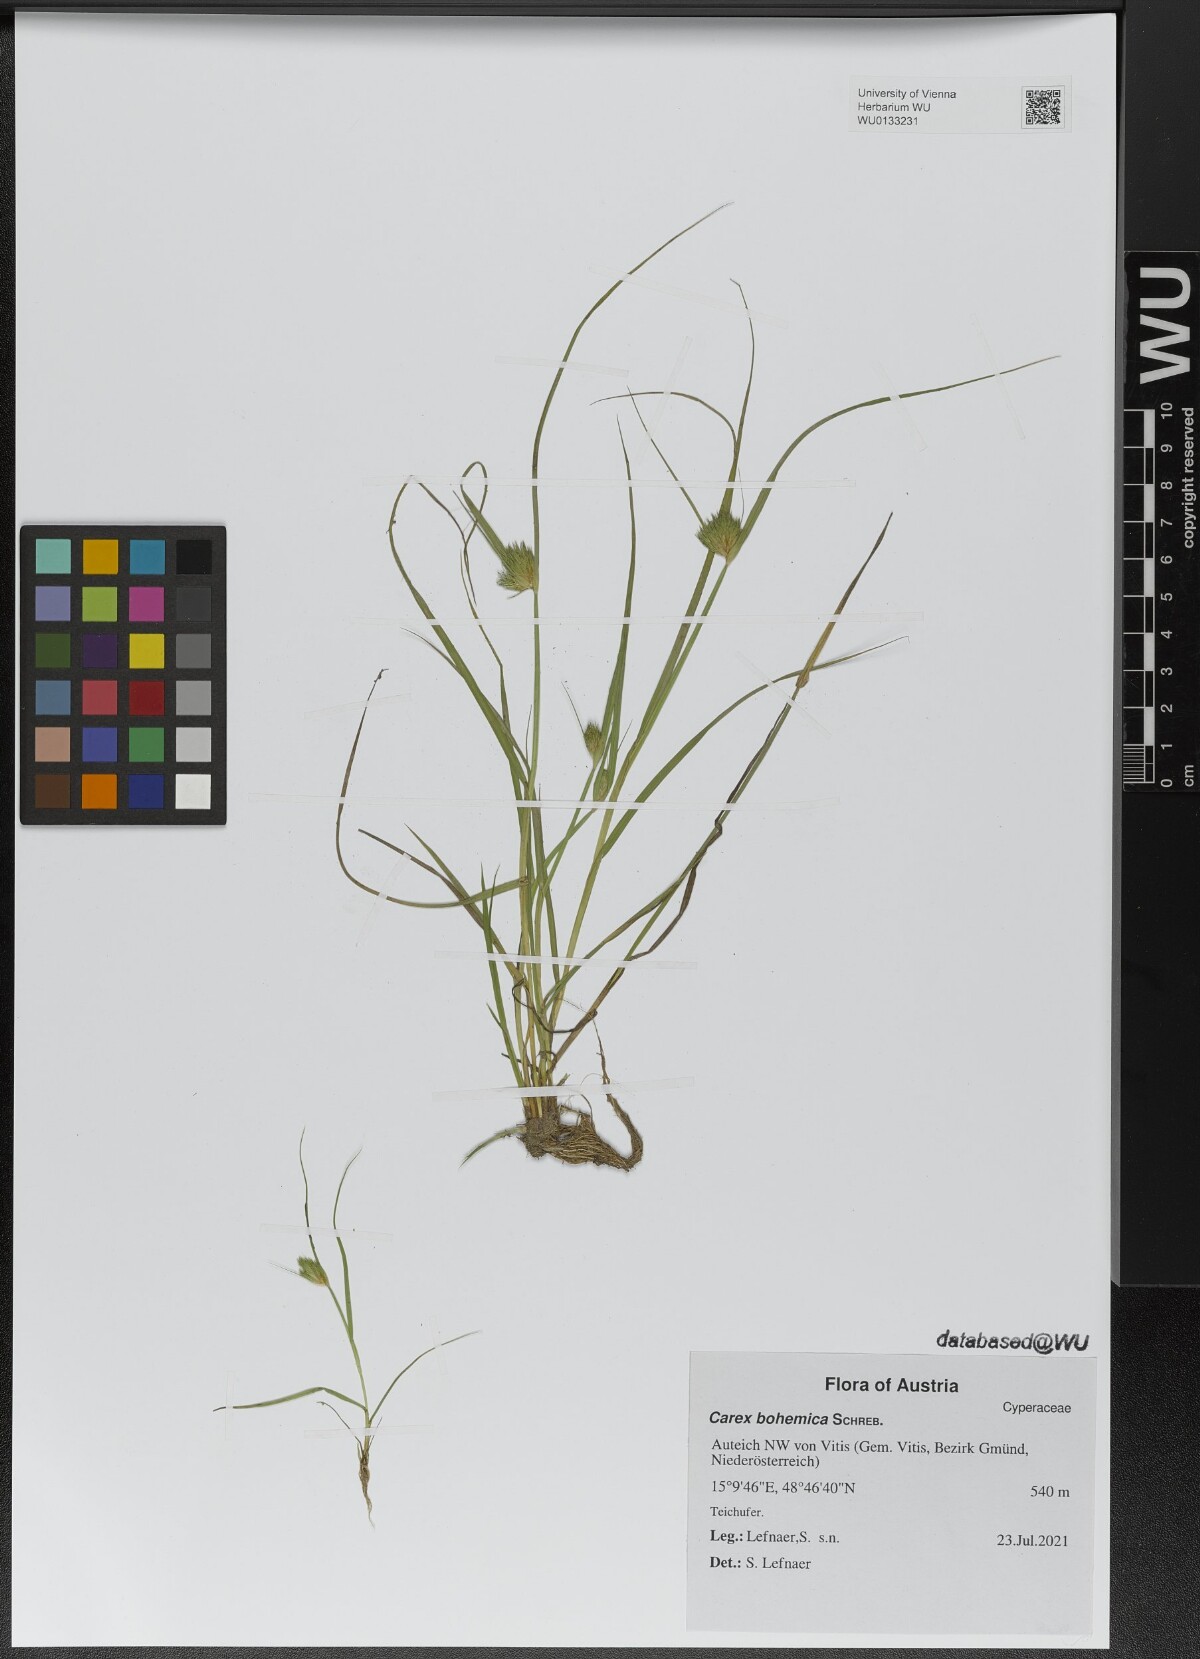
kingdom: Plantae
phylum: Tracheophyta
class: Liliopsida
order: Poales
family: Cyperaceae
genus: Carex
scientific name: Carex bohemica
